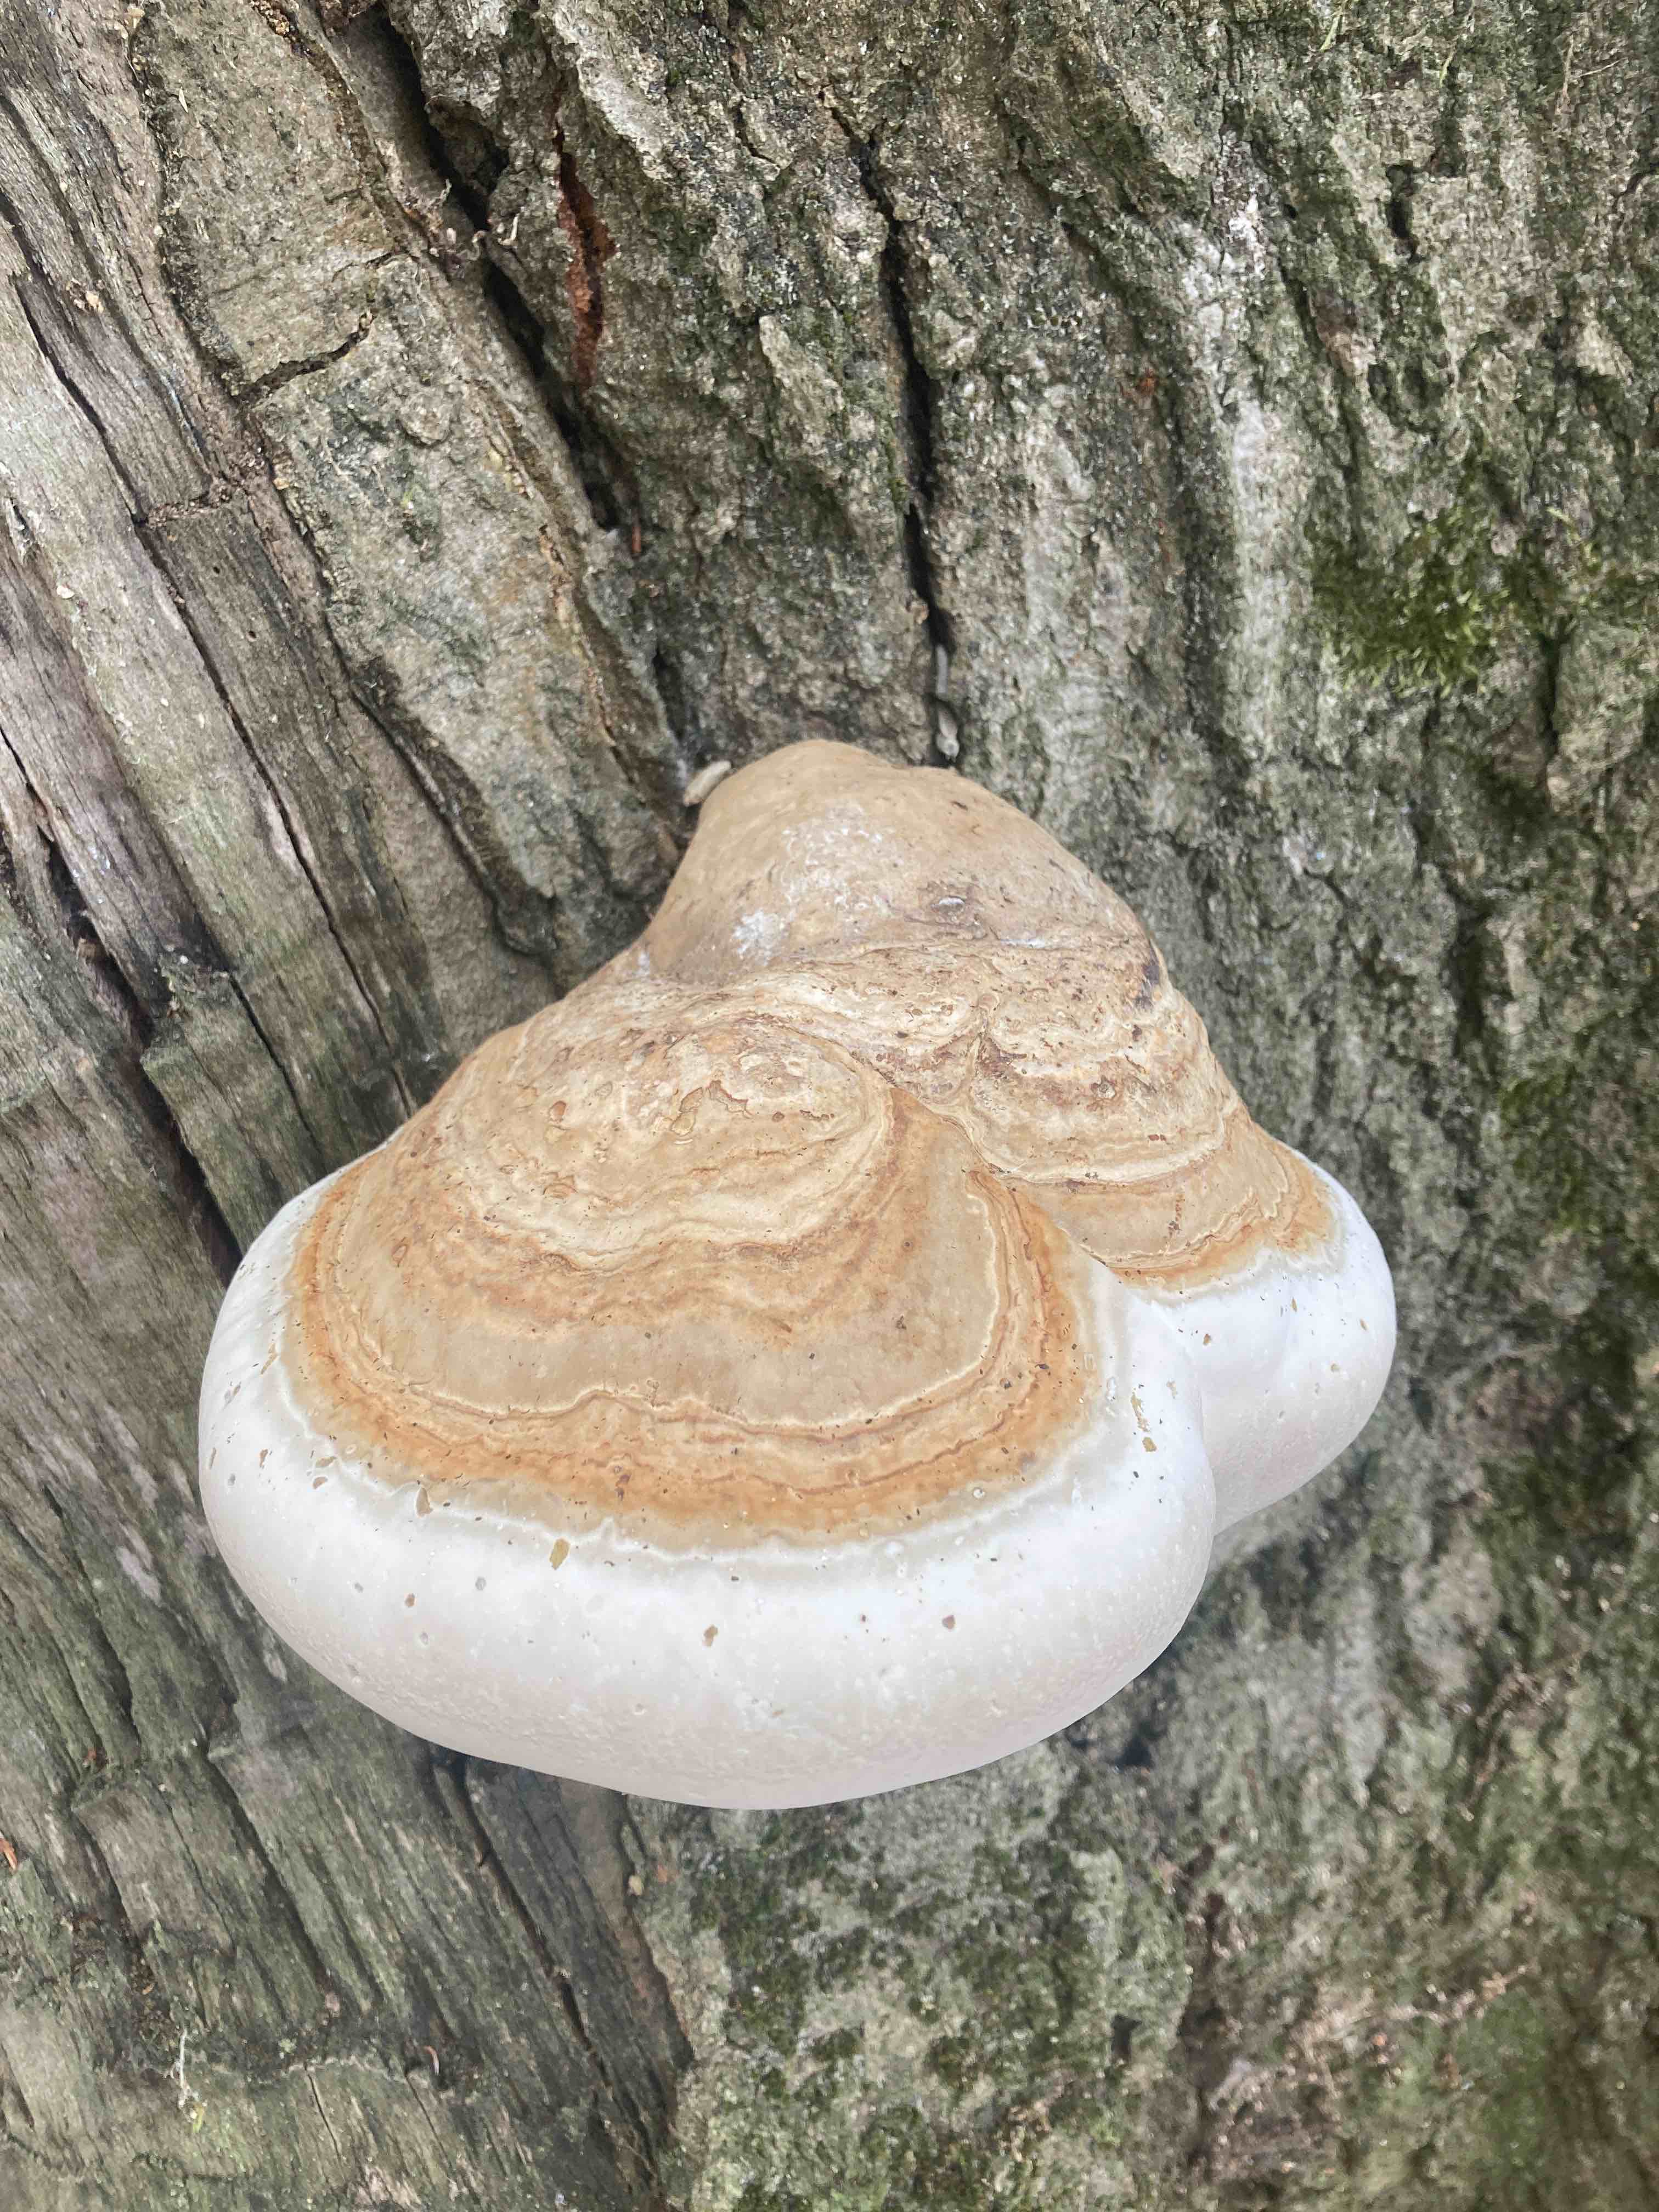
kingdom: Fungi
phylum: Basidiomycota
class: Agaricomycetes
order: Polyporales
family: Polyporaceae
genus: Fomes
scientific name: Fomes fomentarius
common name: tøndersvamp
